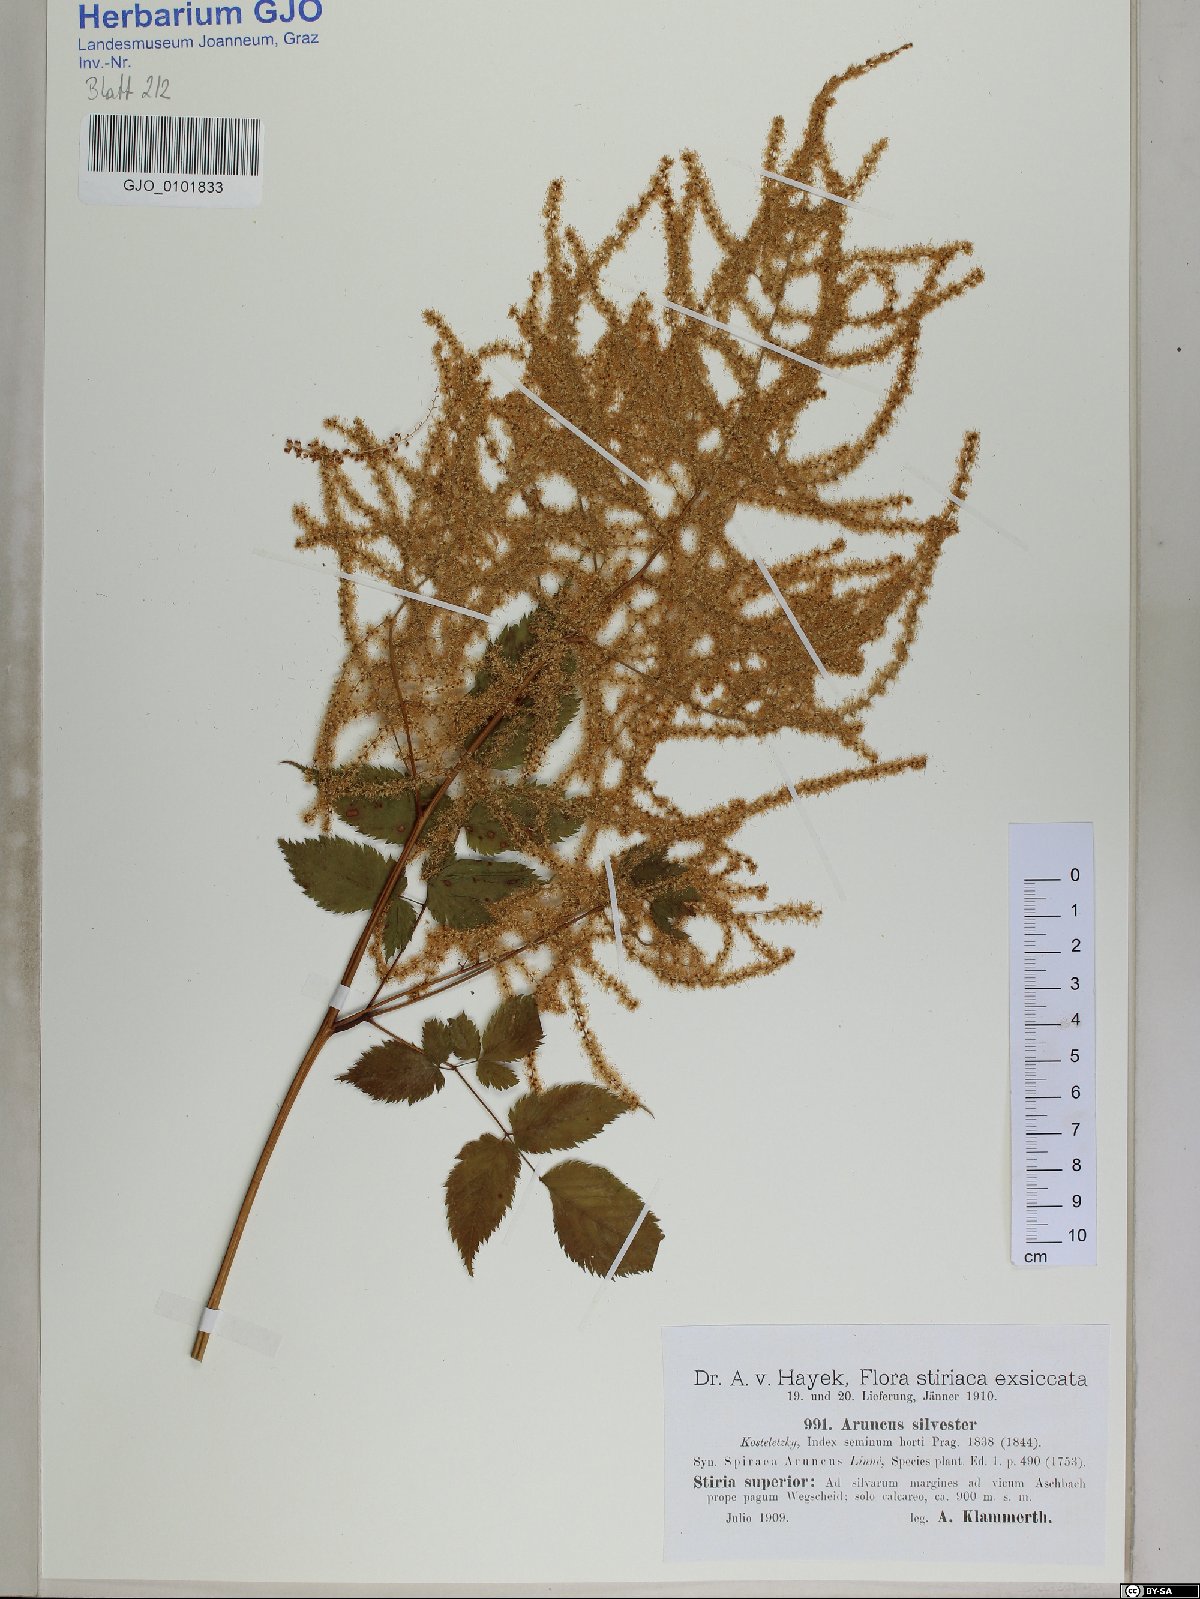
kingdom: Plantae
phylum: Tracheophyta
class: Magnoliopsida
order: Rosales
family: Rosaceae
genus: Aruncus
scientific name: Aruncus sylvester
